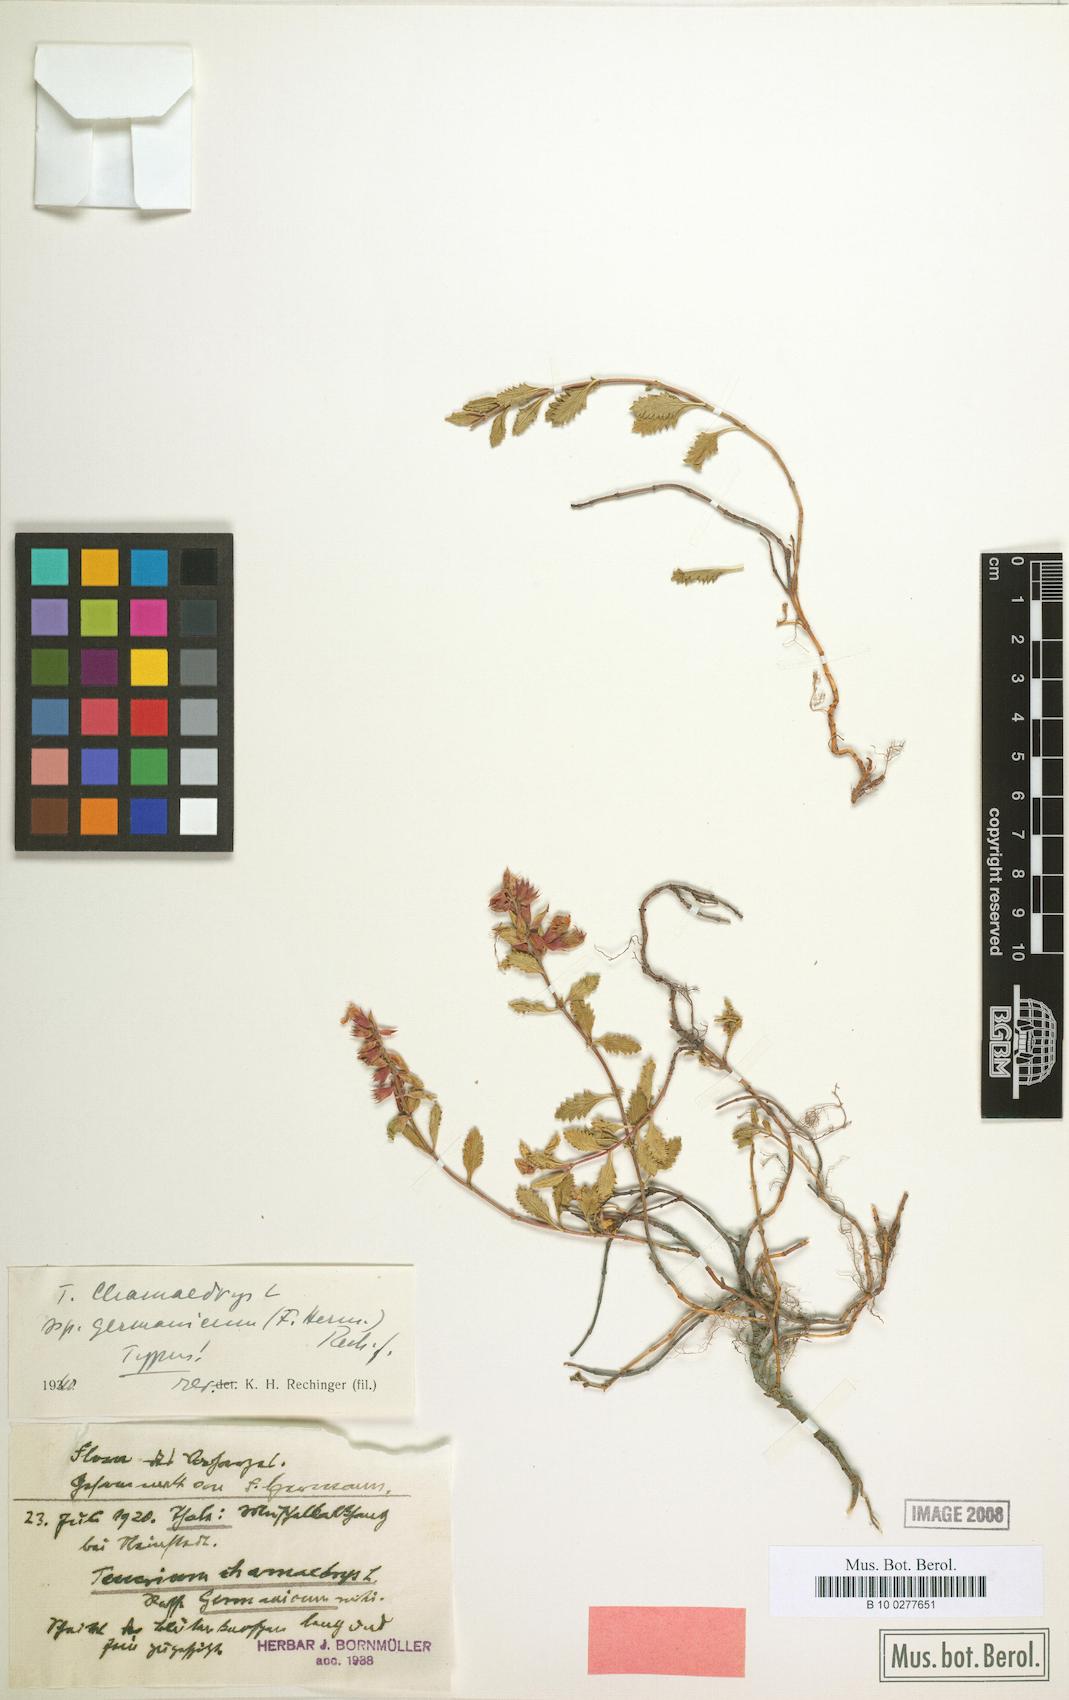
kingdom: Plantae
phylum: Tracheophyta
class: Magnoliopsida
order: Lamiales
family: Lamiaceae
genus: Teucrium
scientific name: Teucrium chamaedrys
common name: Wall germander
